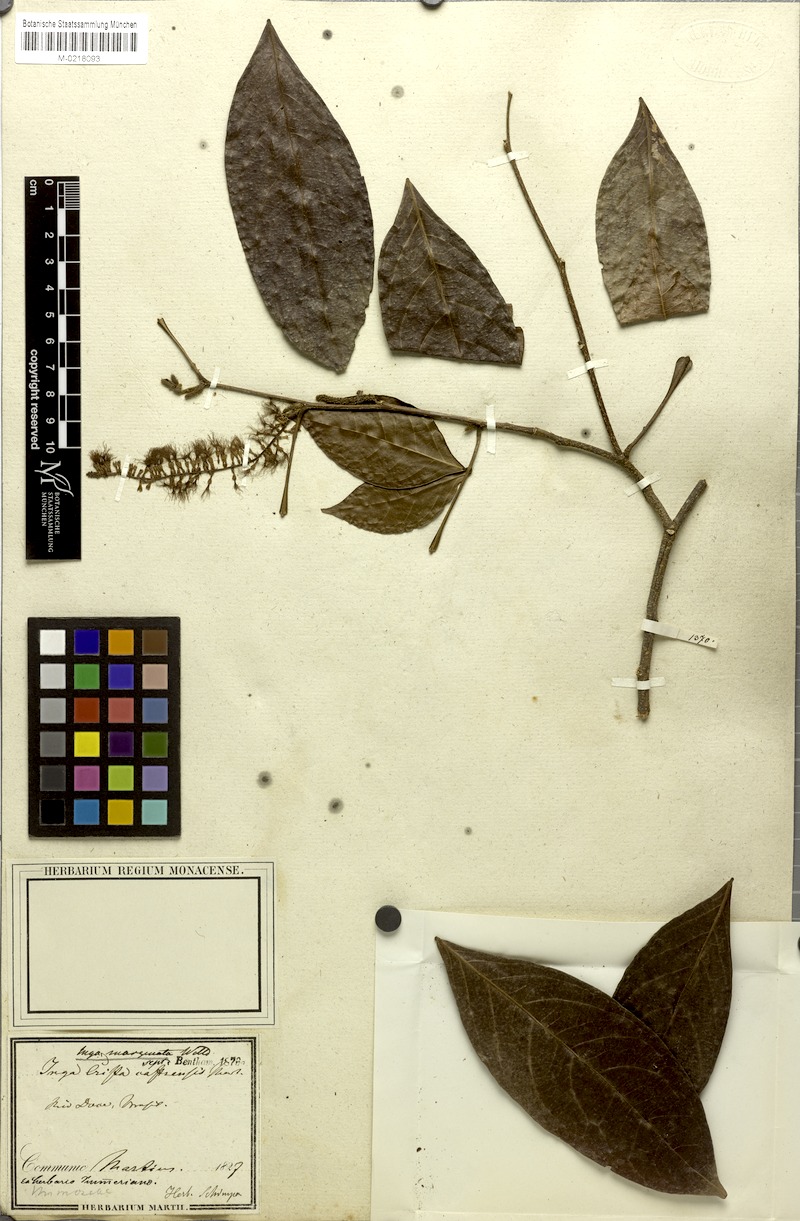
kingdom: Plantae
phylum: Tracheophyta
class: Magnoliopsida
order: Fabales
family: Fabaceae
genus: Inga
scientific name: Inga marginata
